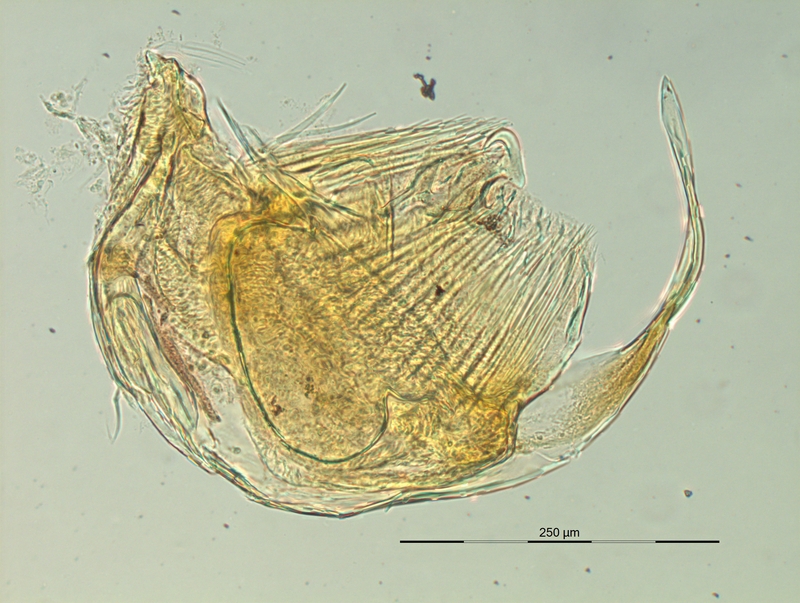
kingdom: Animalia
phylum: Arthropoda
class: Diplopoda
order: Chordeumatida
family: Craspedosomatidae
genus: Pyrgocyphosoma
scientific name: Pyrgocyphosoma brembanum
